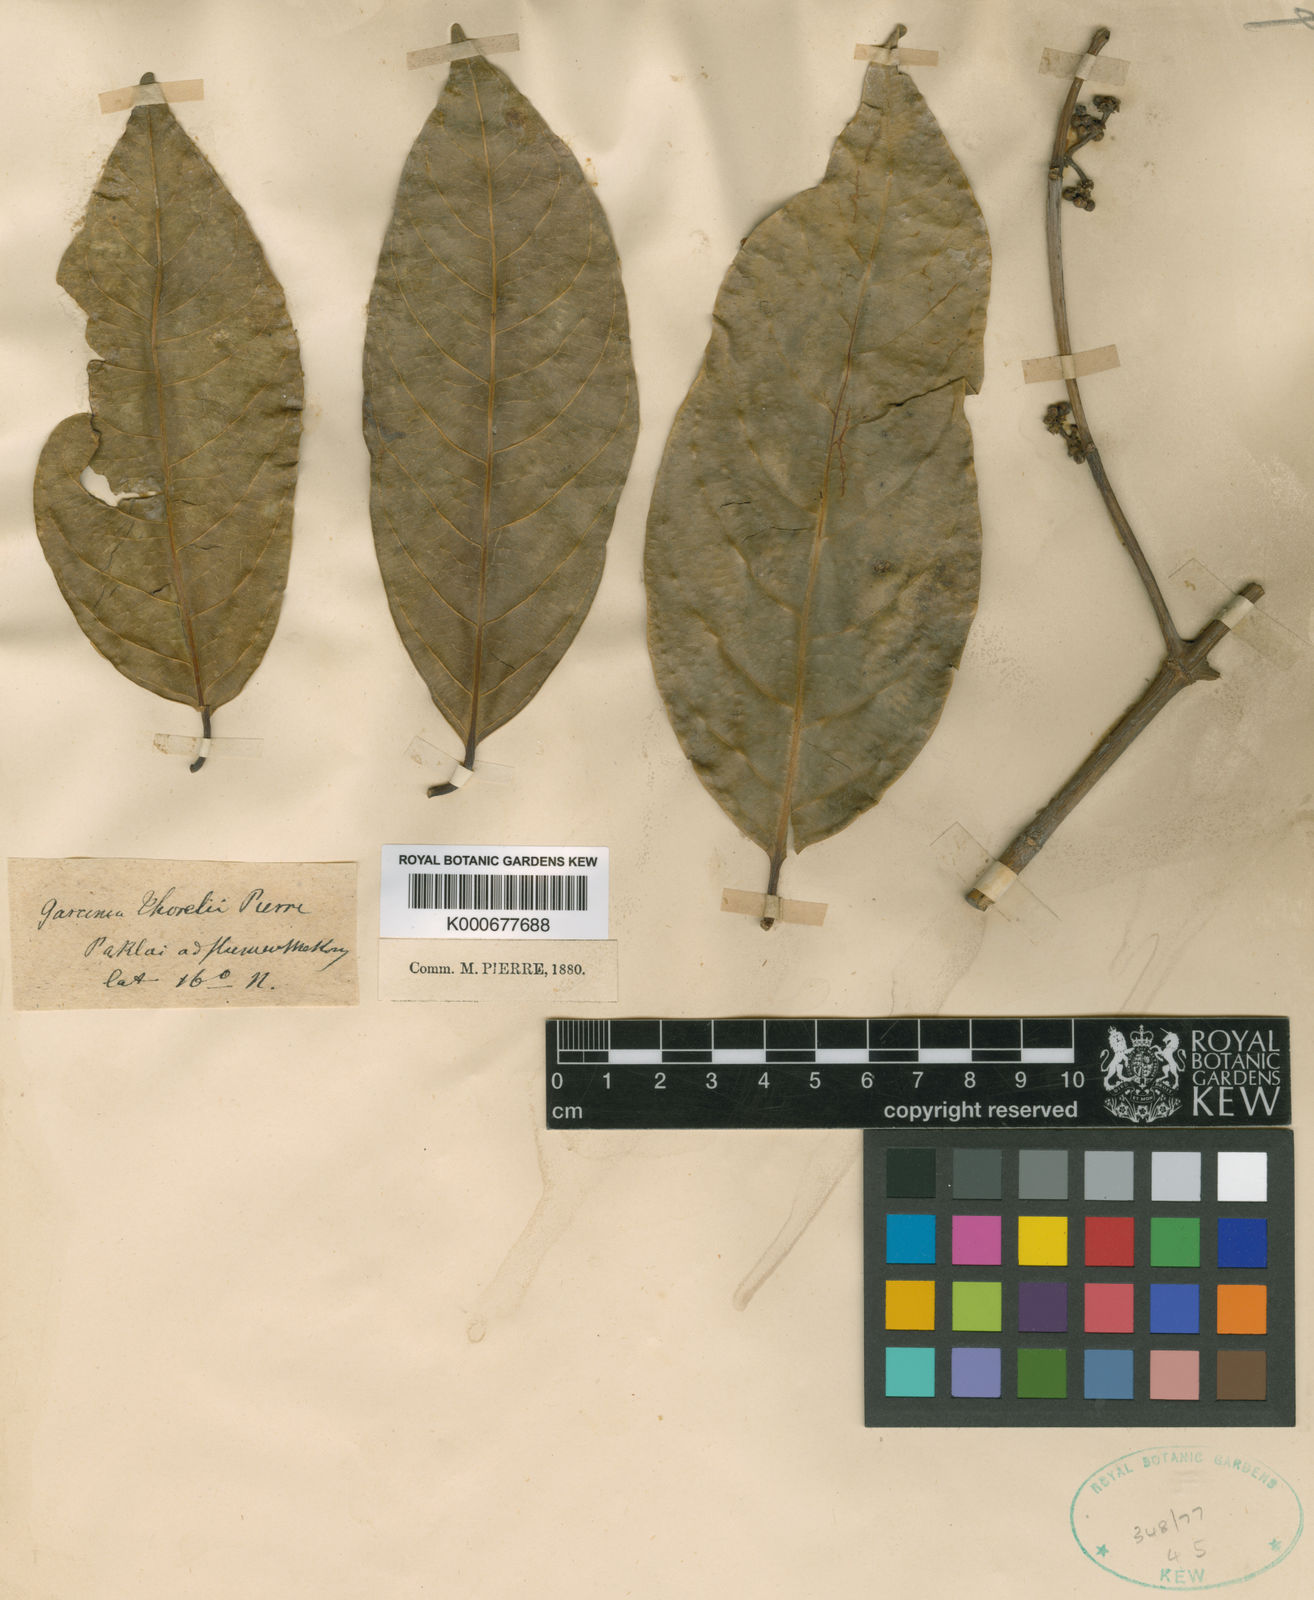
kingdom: Plantae
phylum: Tracheophyta
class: Magnoliopsida
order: Malpighiales
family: Clusiaceae
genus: Garcinia
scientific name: Garcinia thorelii
